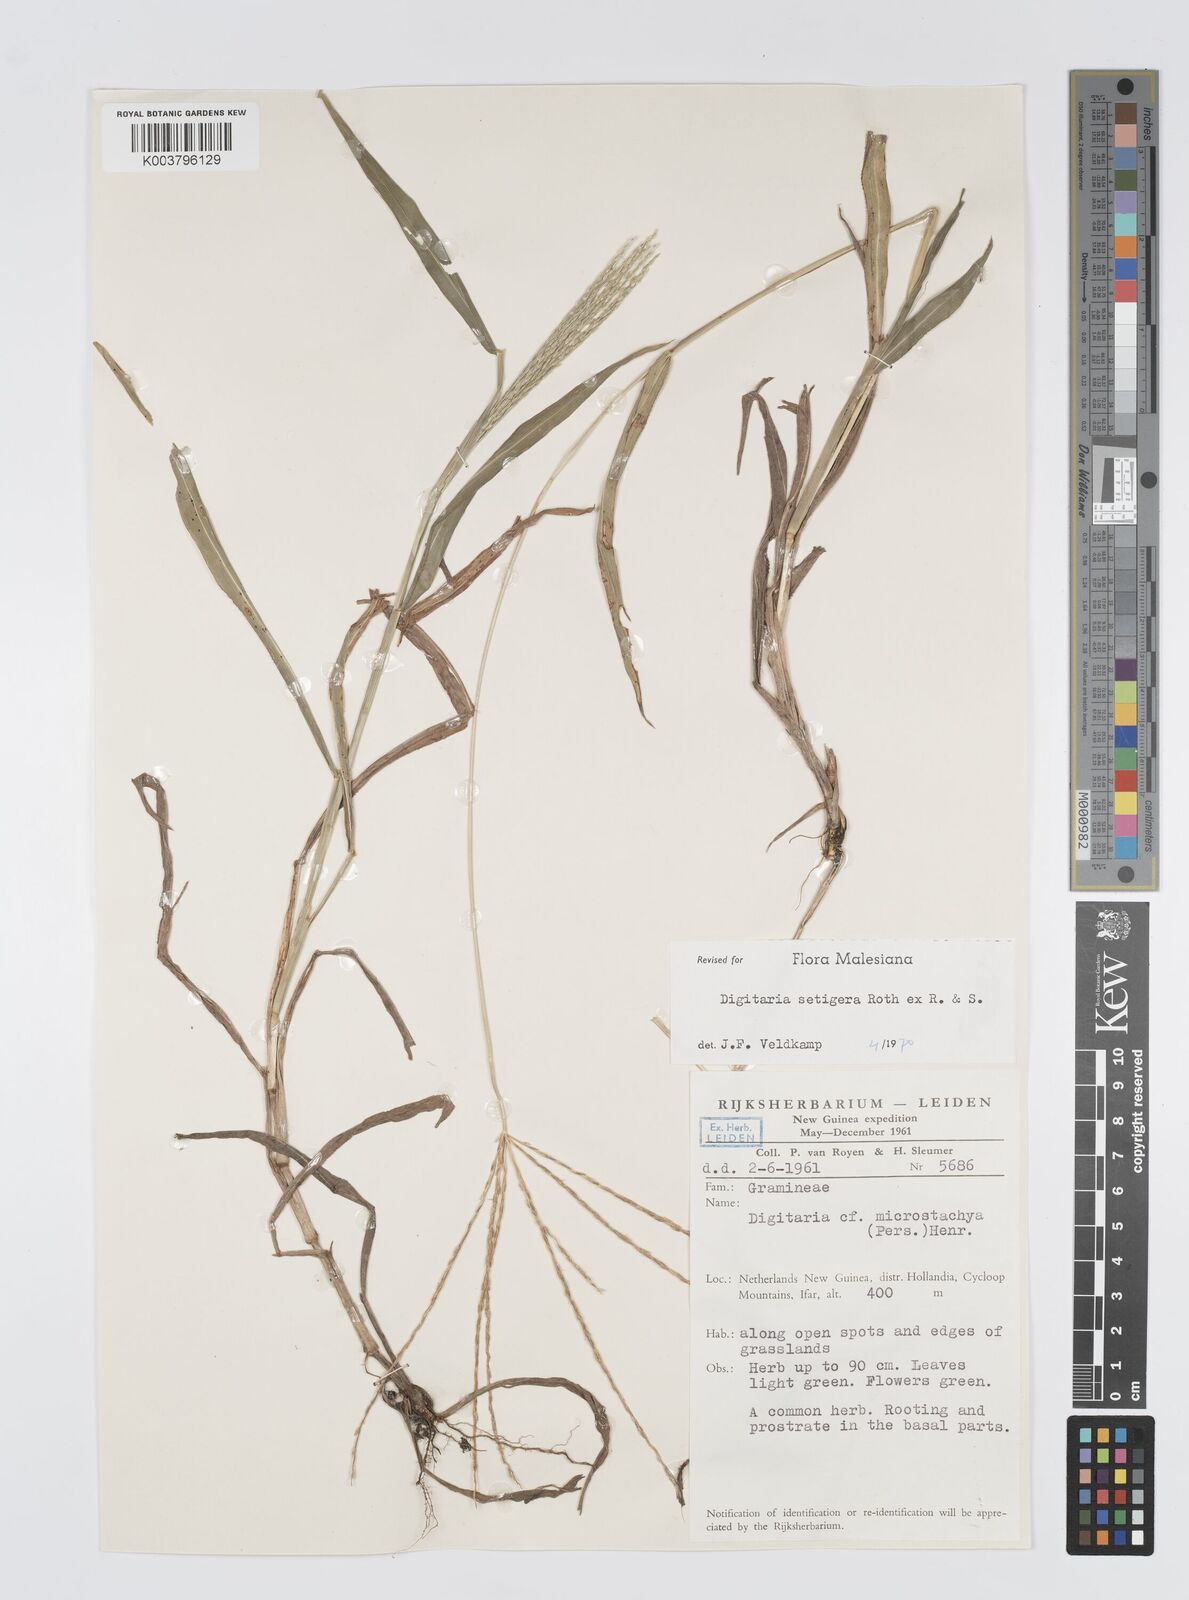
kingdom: Plantae
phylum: Tracheophyta
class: Liliopsida
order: Poales
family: Poaceae
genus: Digitaria
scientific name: Digitaria setigera
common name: East indian crabgrass
